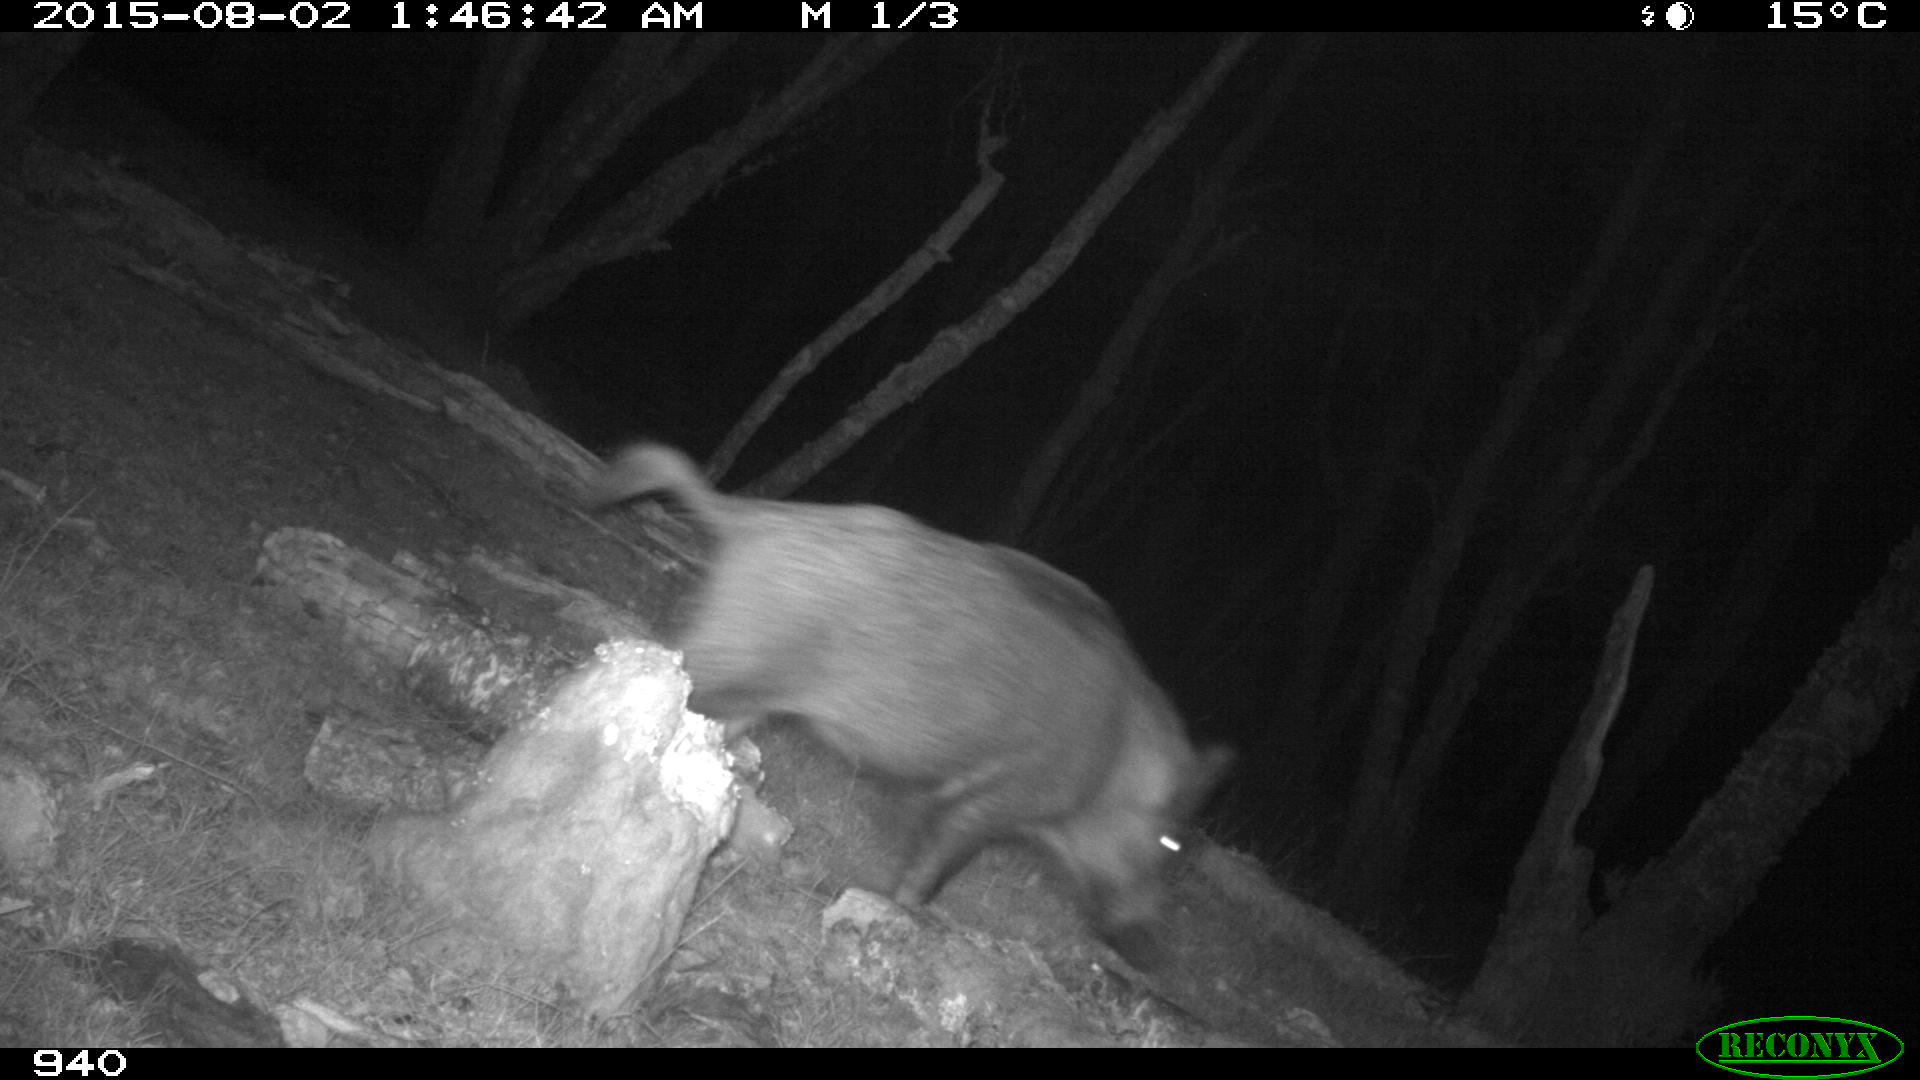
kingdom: Animalia
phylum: Chordata
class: Mammalia
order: Artiodactyla
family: Suidae
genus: Sus
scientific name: Sus scrofa
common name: Wild boar
